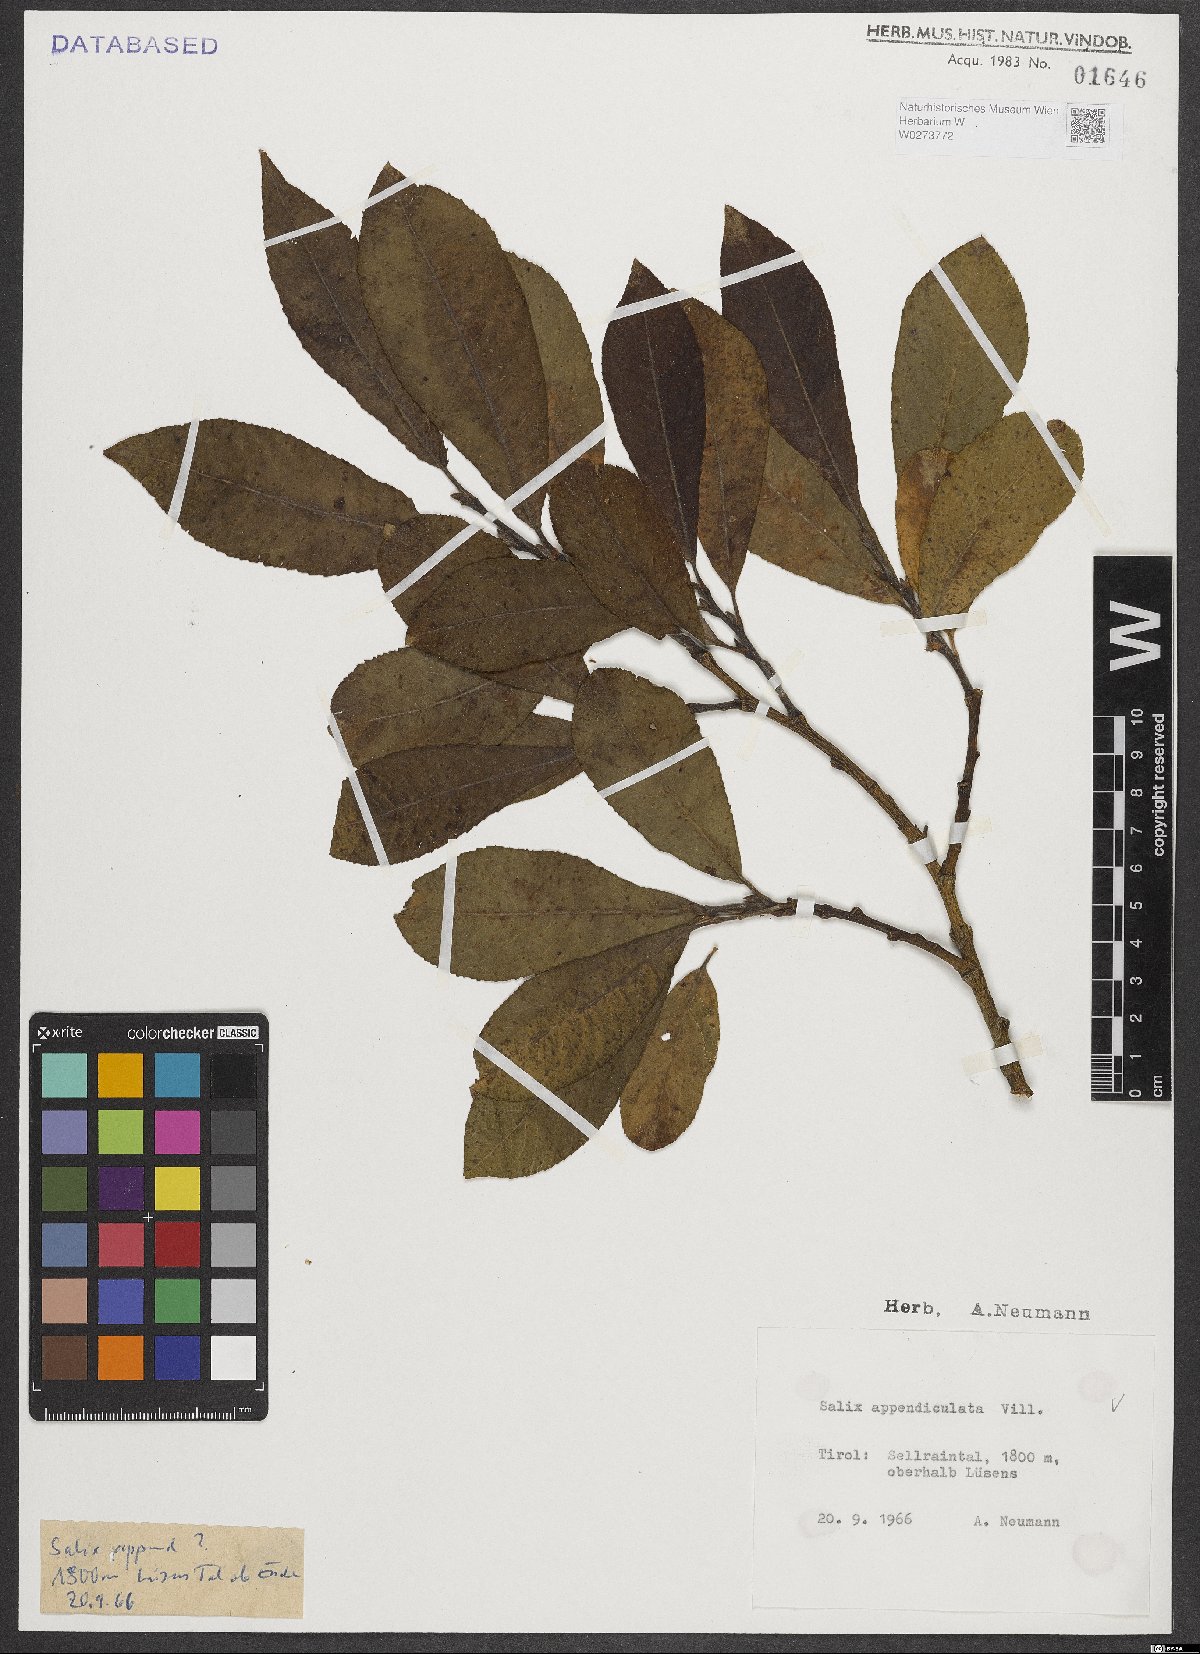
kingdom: Plantae
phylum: Tracheophyta
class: Magnoliopsida
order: Malpighiales
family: Salicaceae
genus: Salix
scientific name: Salix appendiculata
